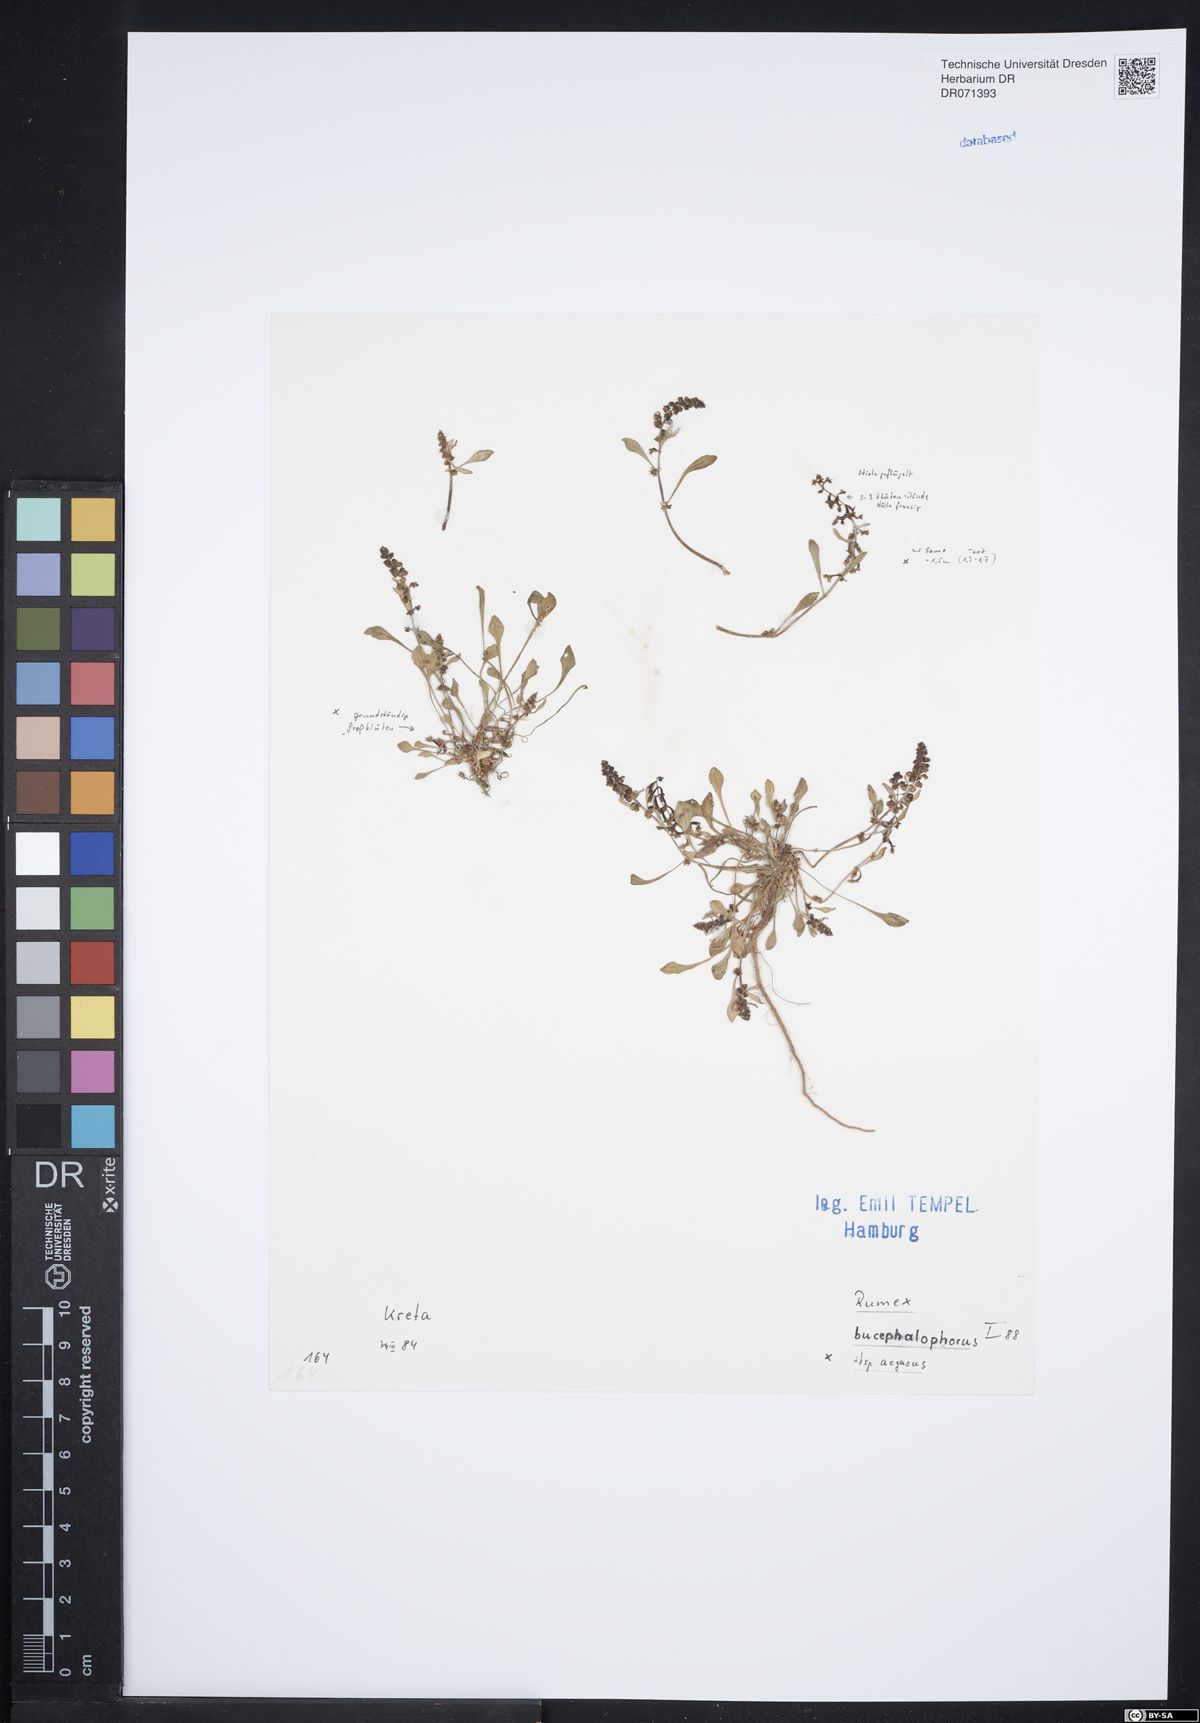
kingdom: Plantae
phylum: Tracheophyta
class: Magnoliopsida
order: Caryophyllales
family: Polygonaceae
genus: Rumex
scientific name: Rumex bucephalophorus
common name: Red dock
